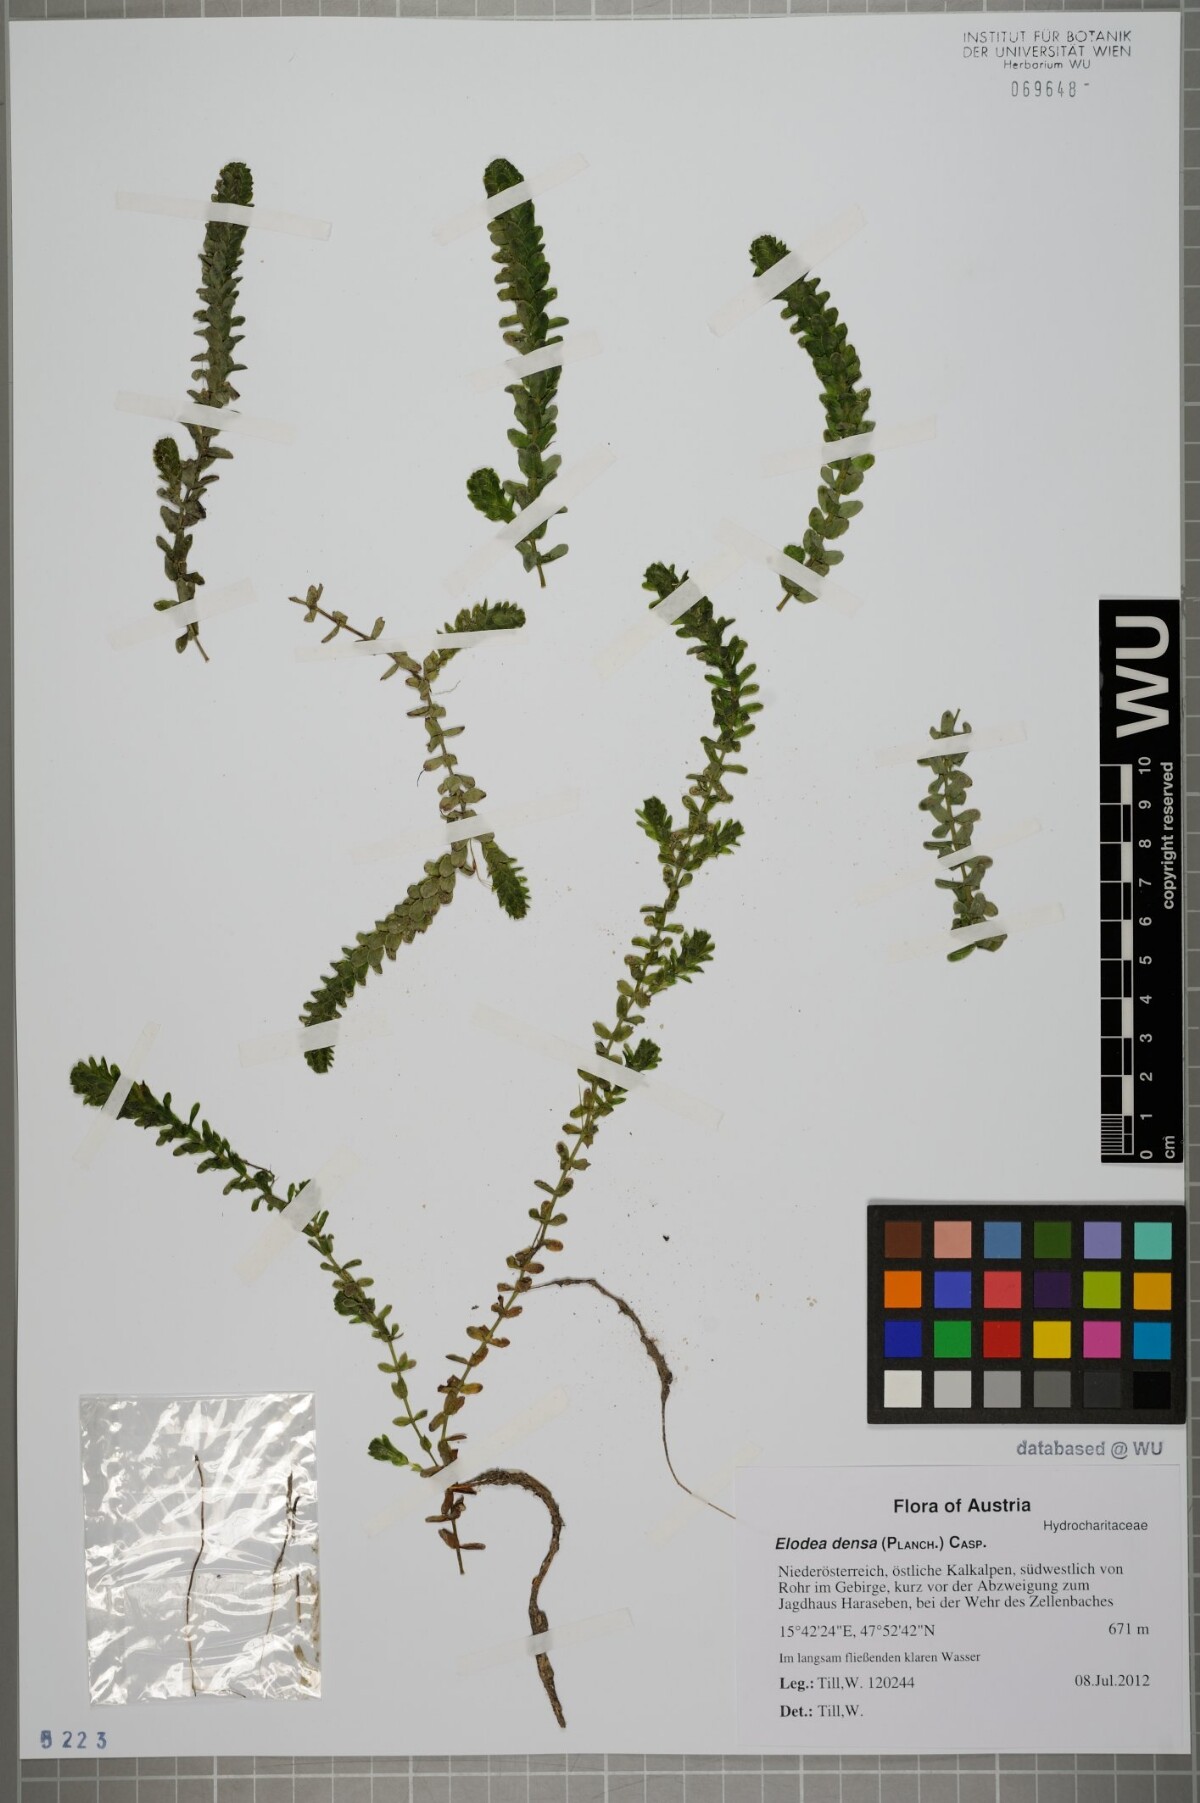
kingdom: Plantae
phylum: Tracheophyta
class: Liliopsida
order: Alismatales
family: Hydrocharitaceae
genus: Elodea
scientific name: Elodea canadensis
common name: Canadian waterweed
